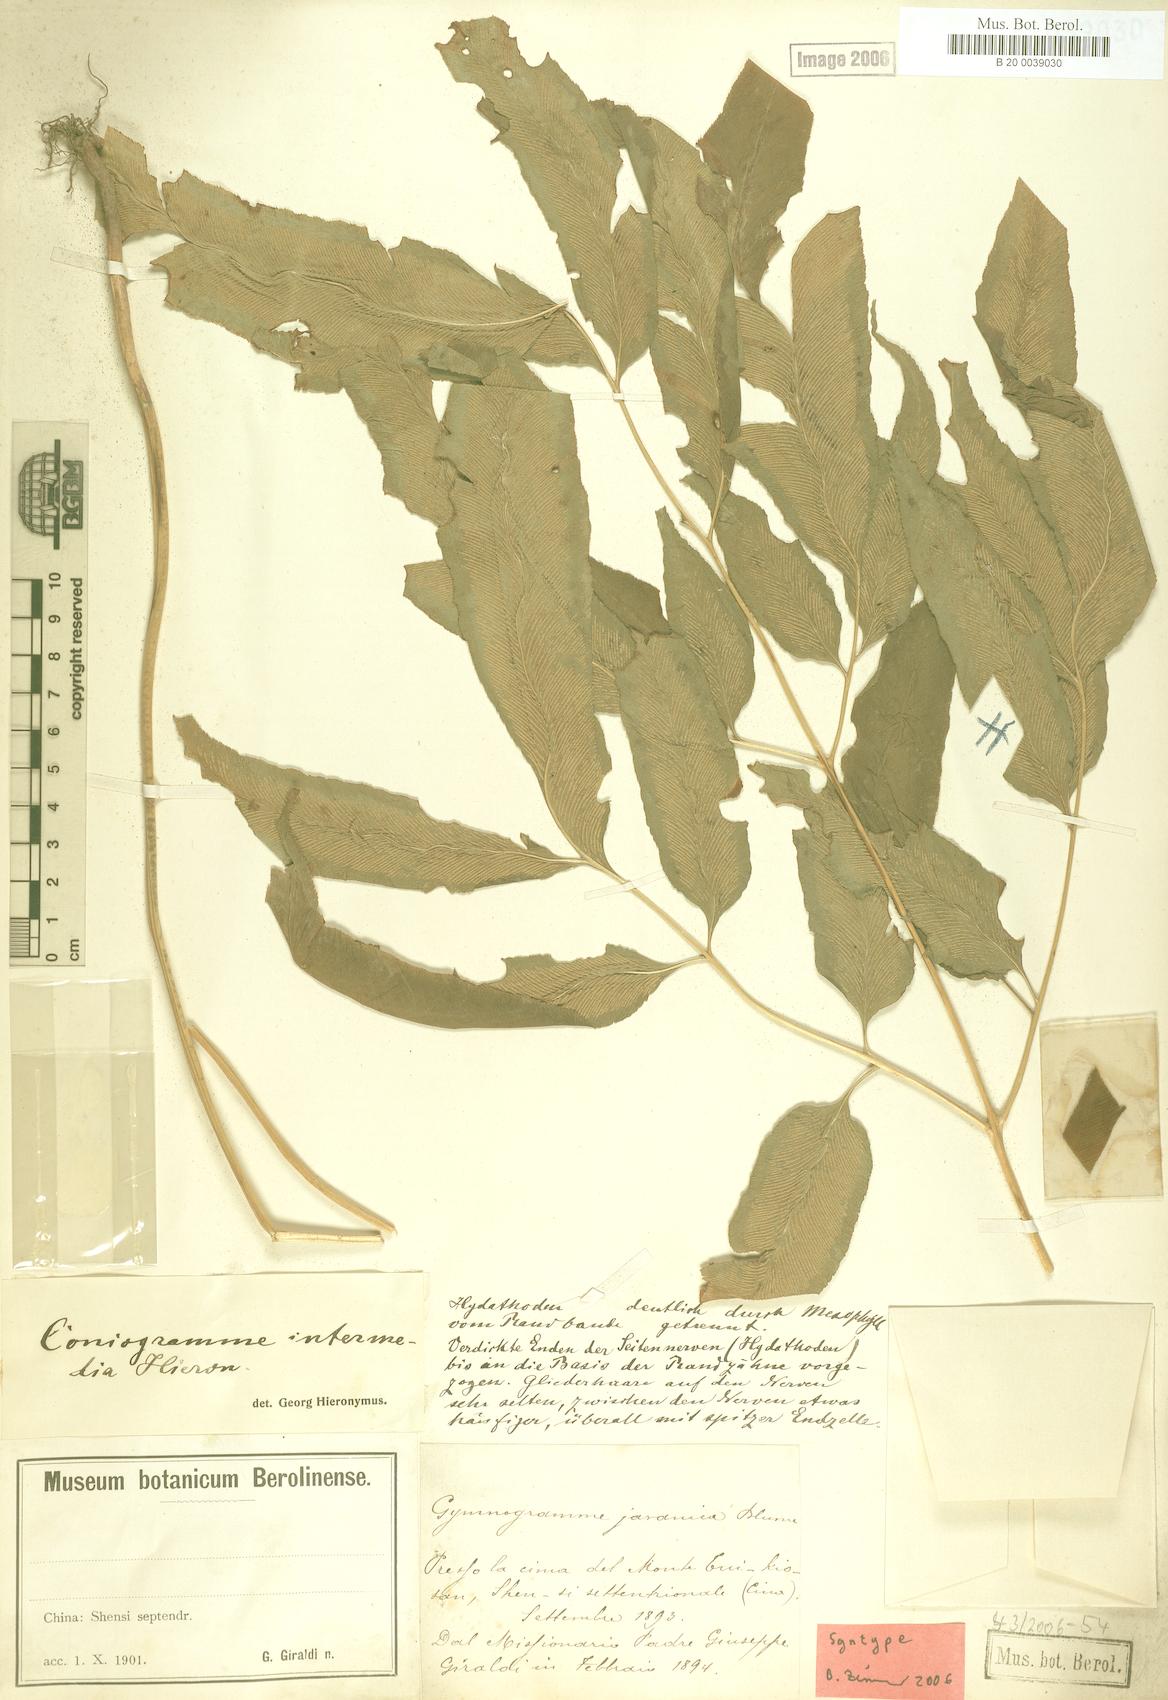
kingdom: Plantae
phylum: Tracheophyta
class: Polypodiopsida
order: Polypodiales
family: Pteridaceae
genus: Coniogramme
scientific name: Coniogramme intermedia
